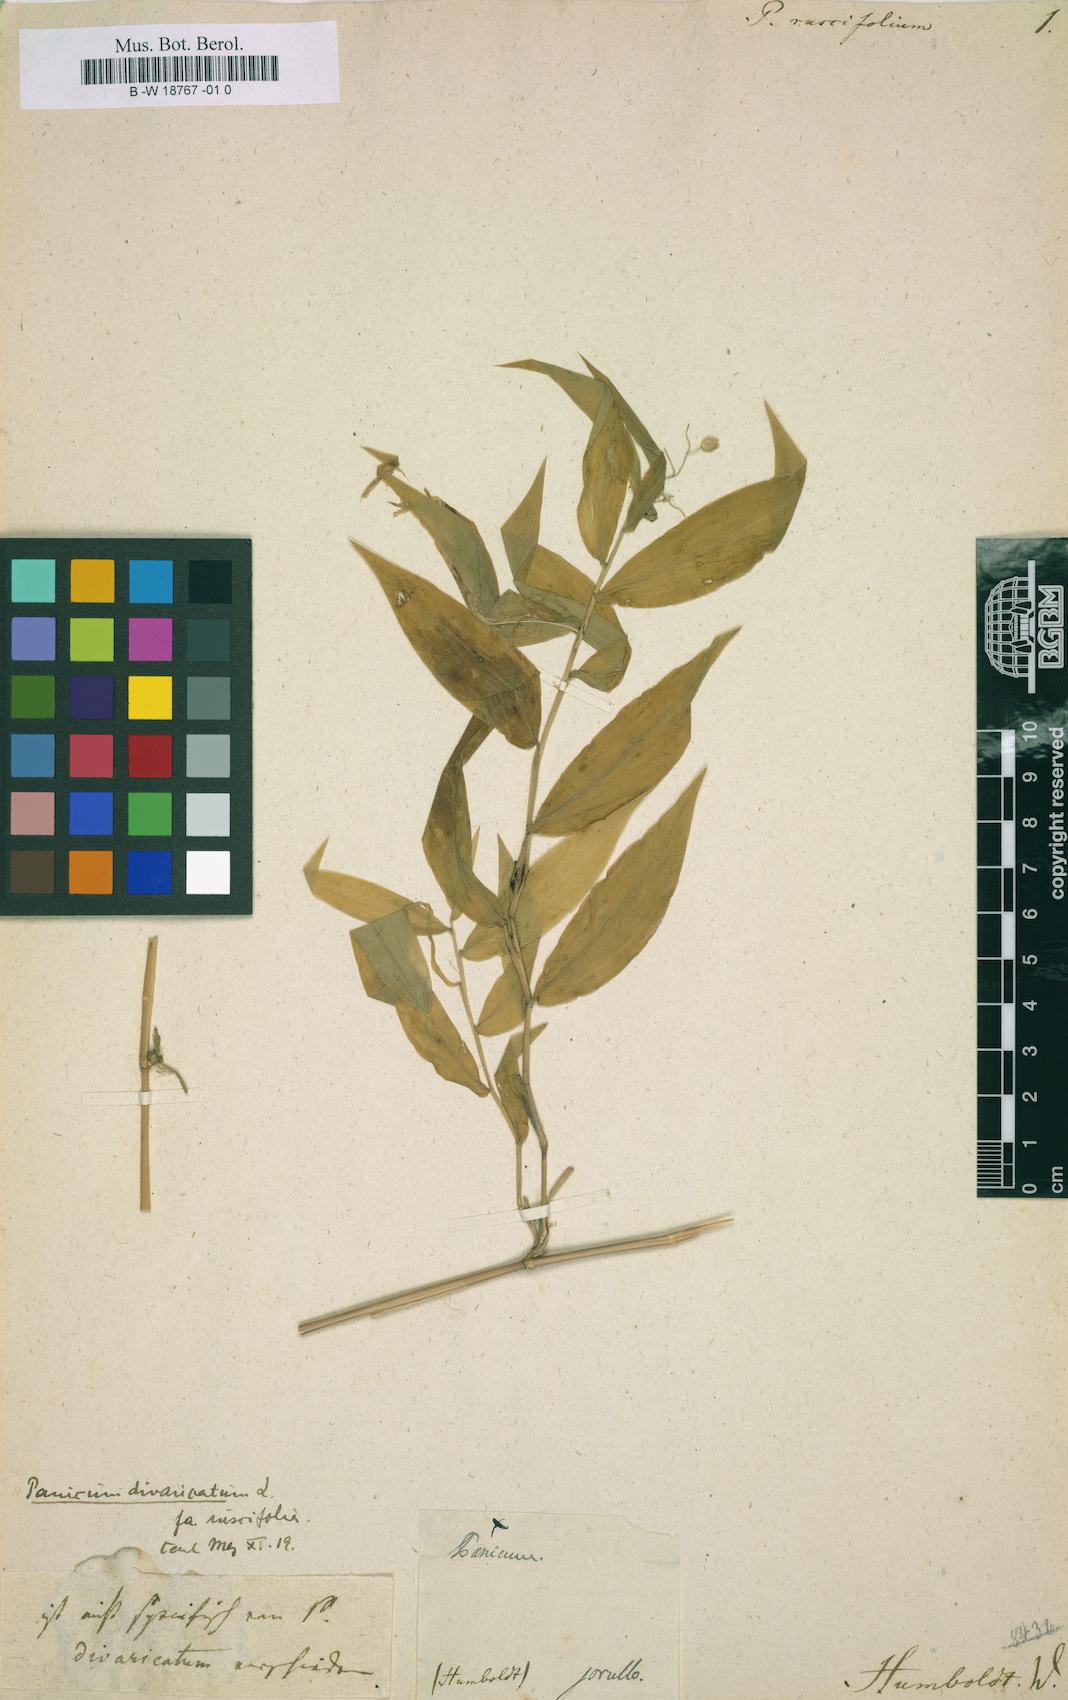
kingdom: Plantae
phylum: Tracheophyta
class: Liliopsida
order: Poales
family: Poaceae
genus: Lasiacis
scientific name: Lasiacis ruscifolia
